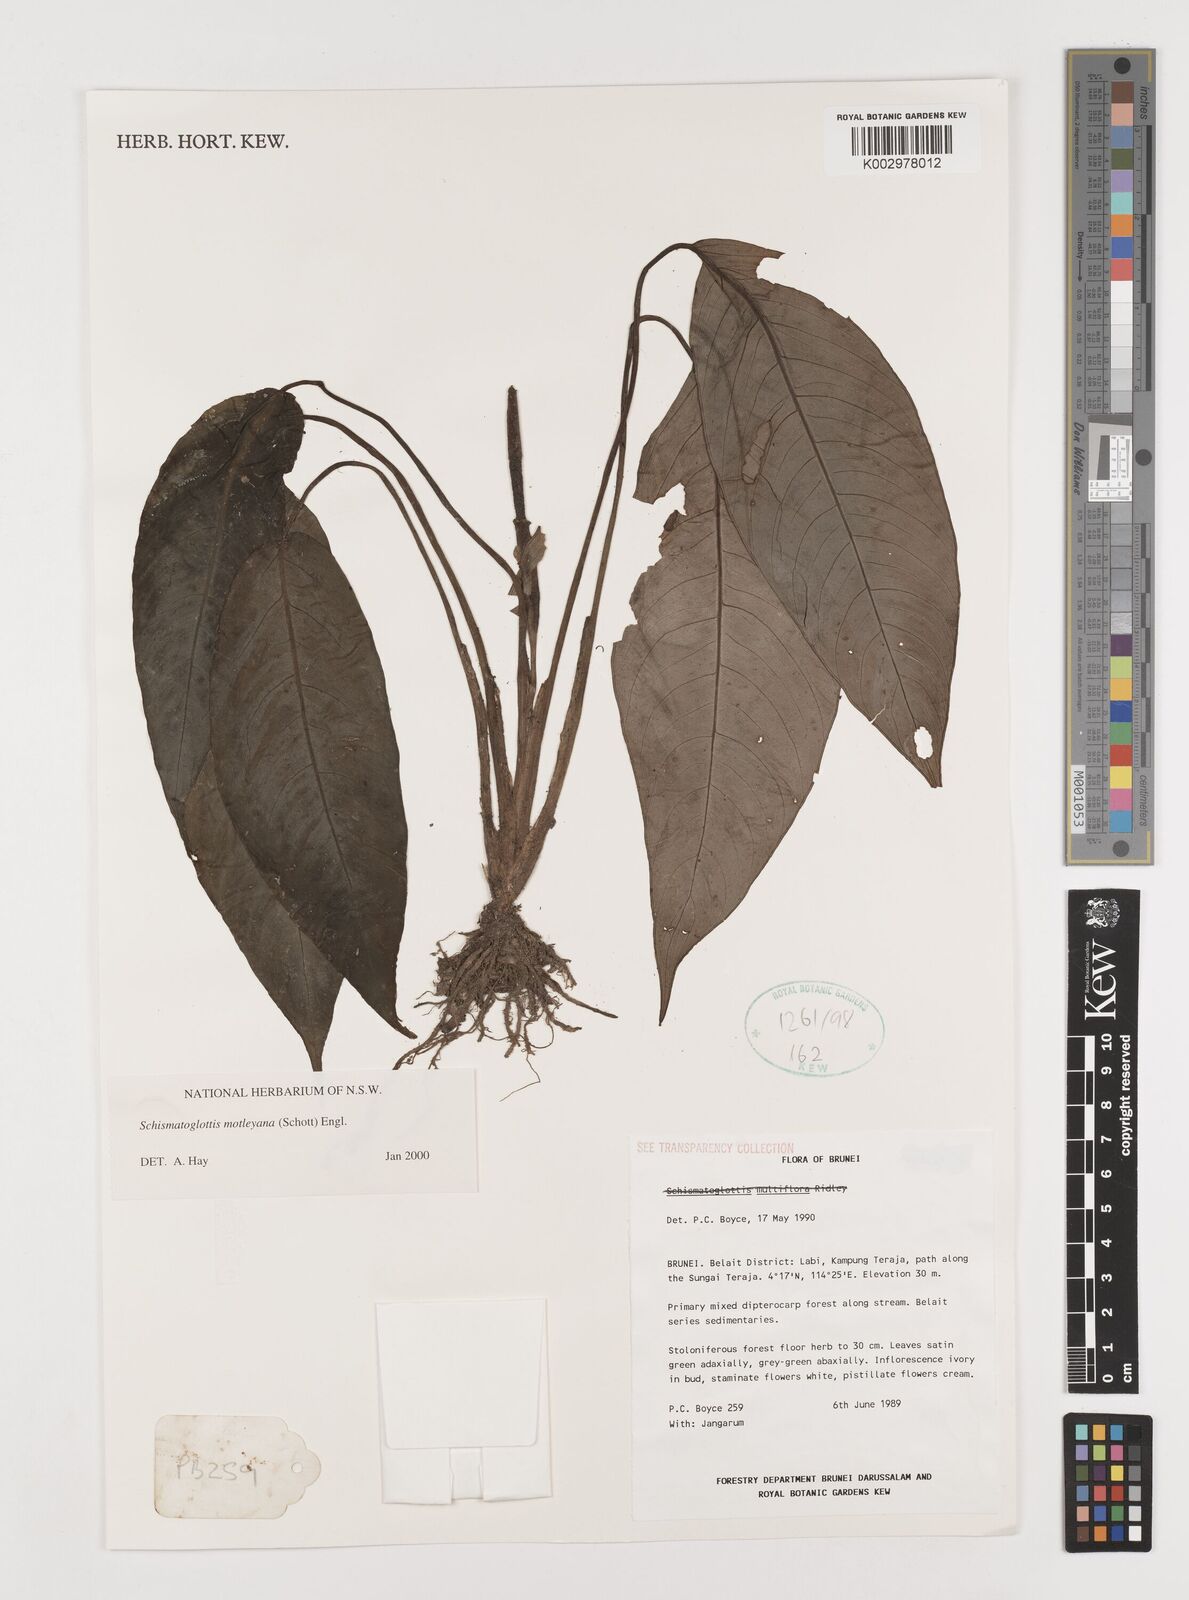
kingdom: Plantae
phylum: Tracheophyta
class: Liliopsida
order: Alismatales
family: Araceae
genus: Schismatoglottis
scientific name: Schismatoglottis motleyana
